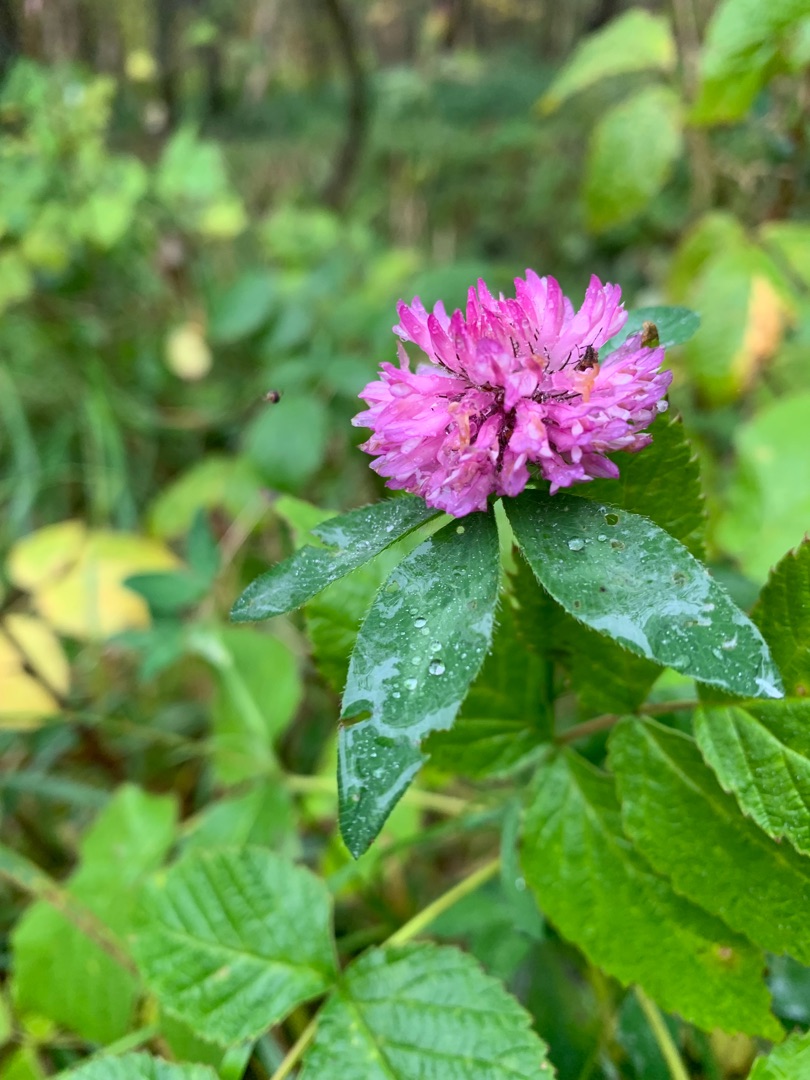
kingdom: Plantae
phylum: Tracheophyta
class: Magnoliopsida
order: Fabales
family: Fabaceae
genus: Trifolium
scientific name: Trifolium pratense
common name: Rød-kløver
